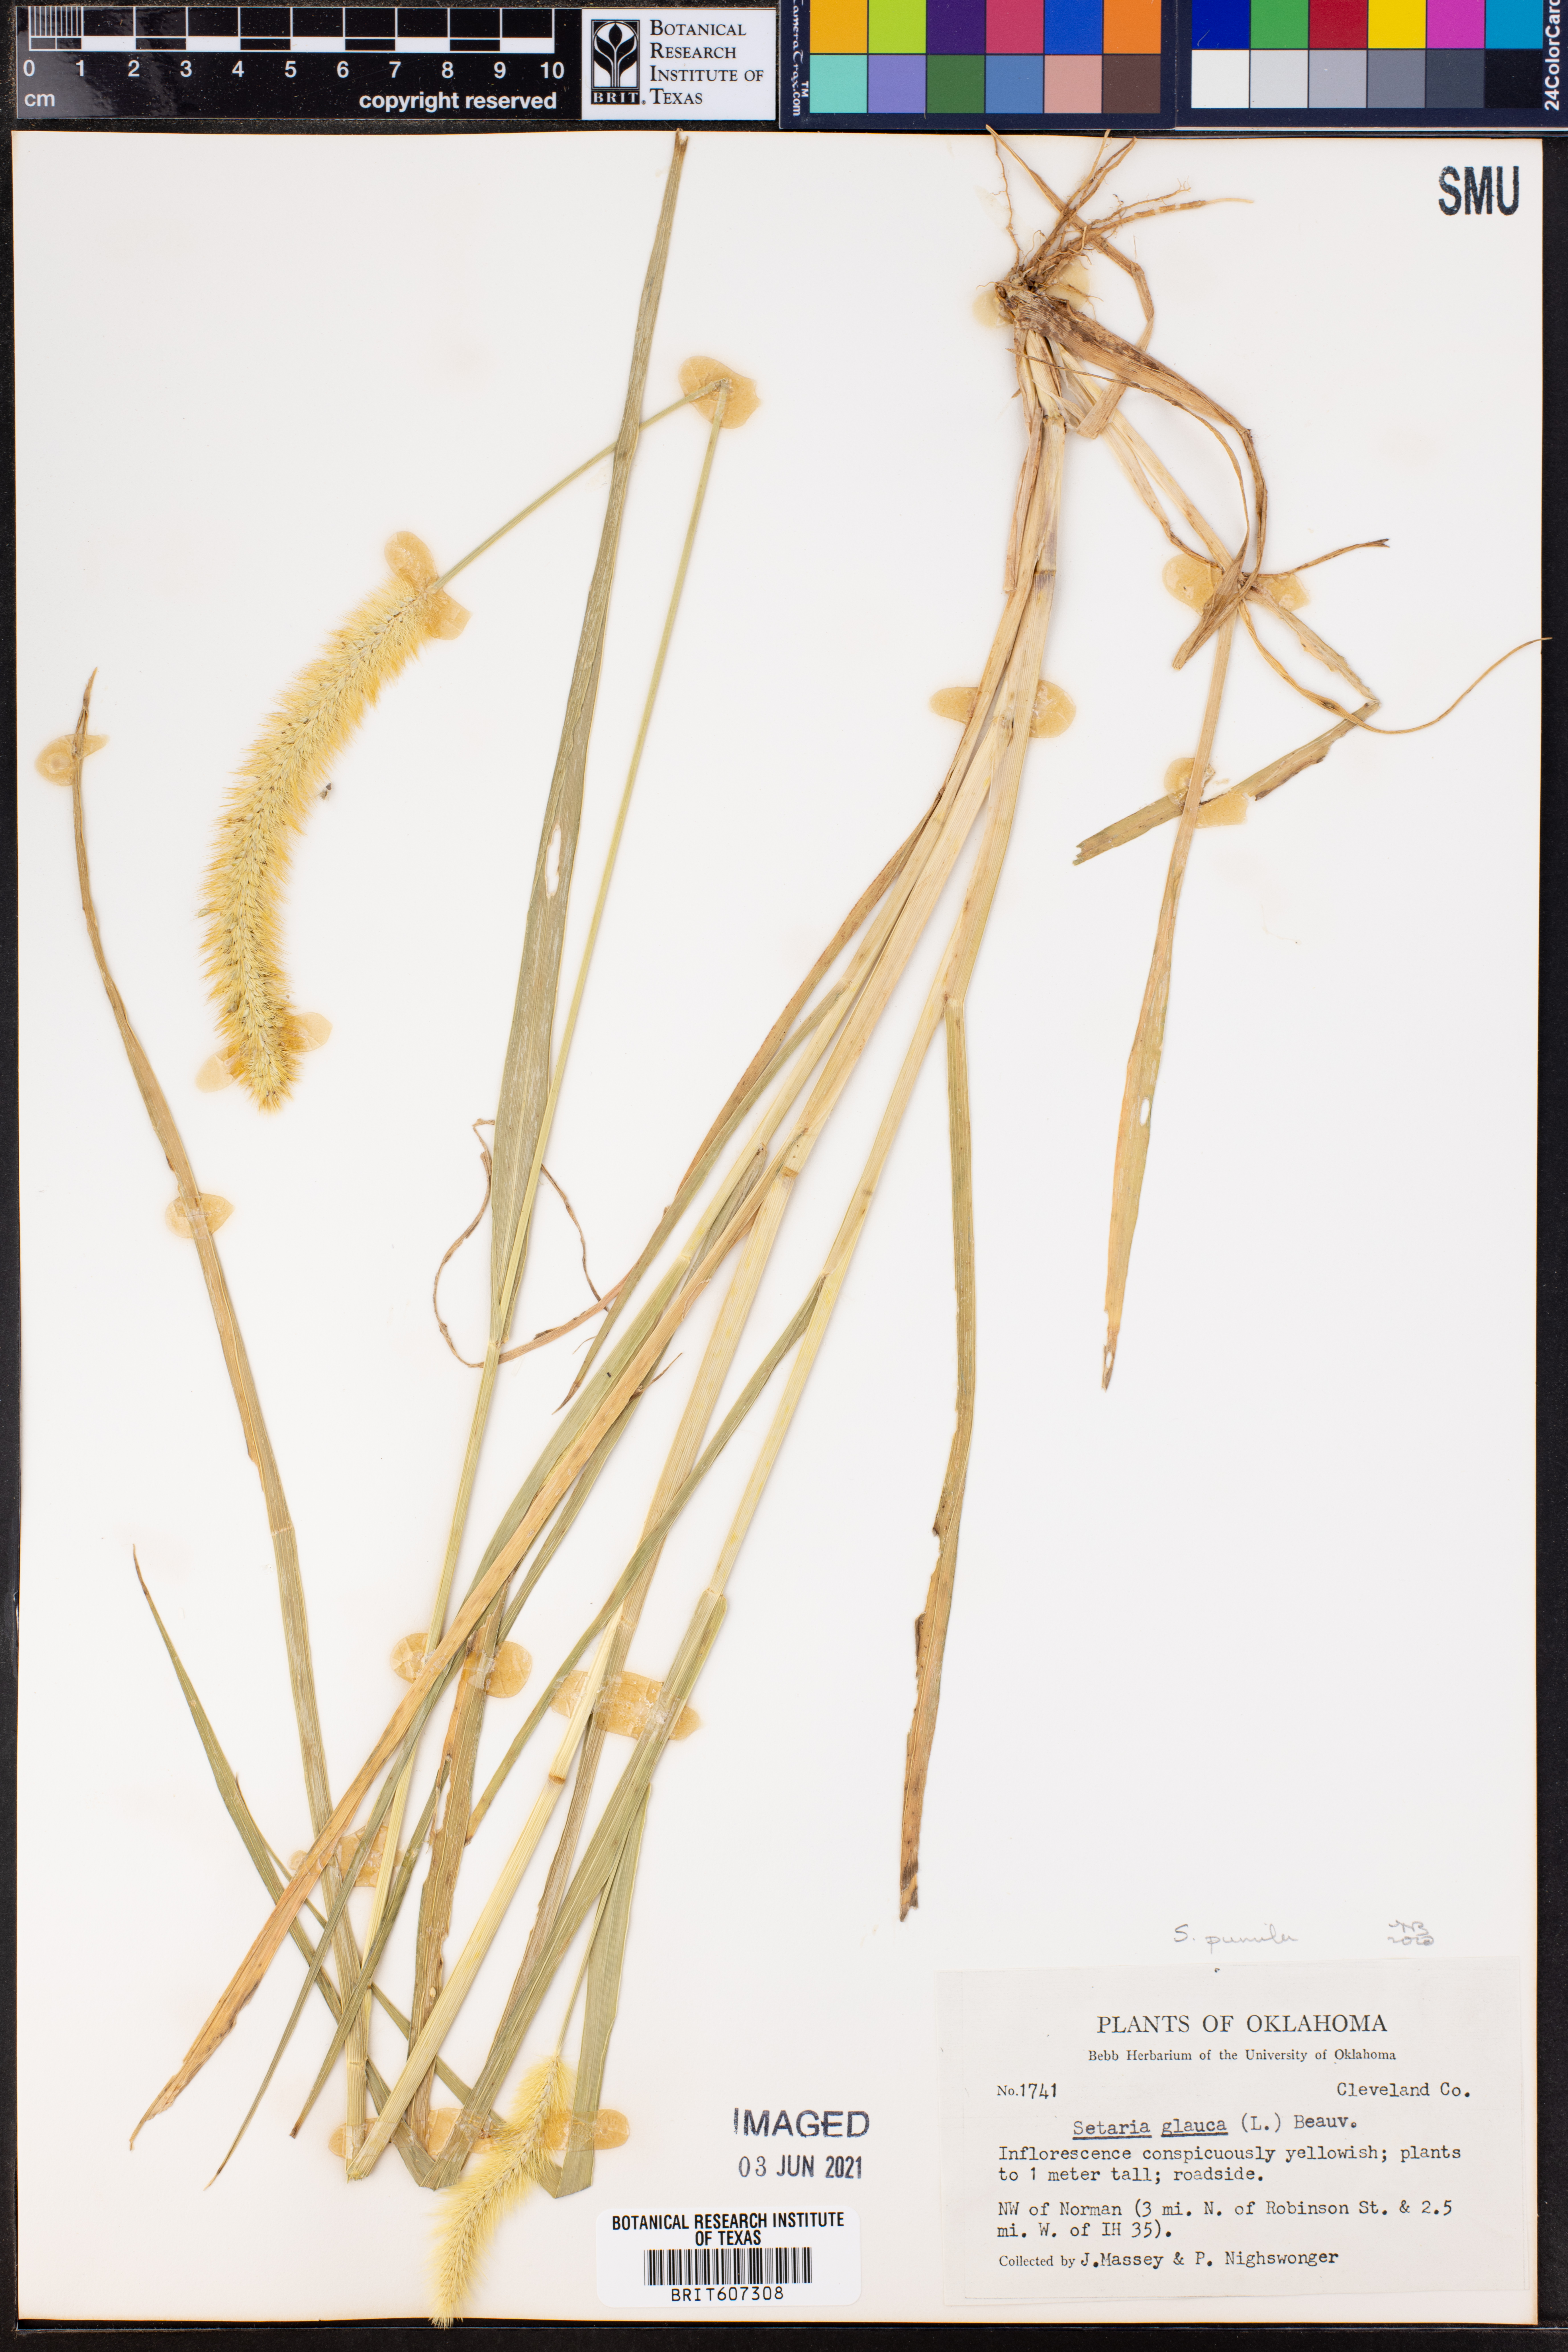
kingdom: Plantae
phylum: Tracheophyta
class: Liliopsida
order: Poales
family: Poaceae
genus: Setaria
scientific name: Setaria pumila
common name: Yellow bristle-grass
